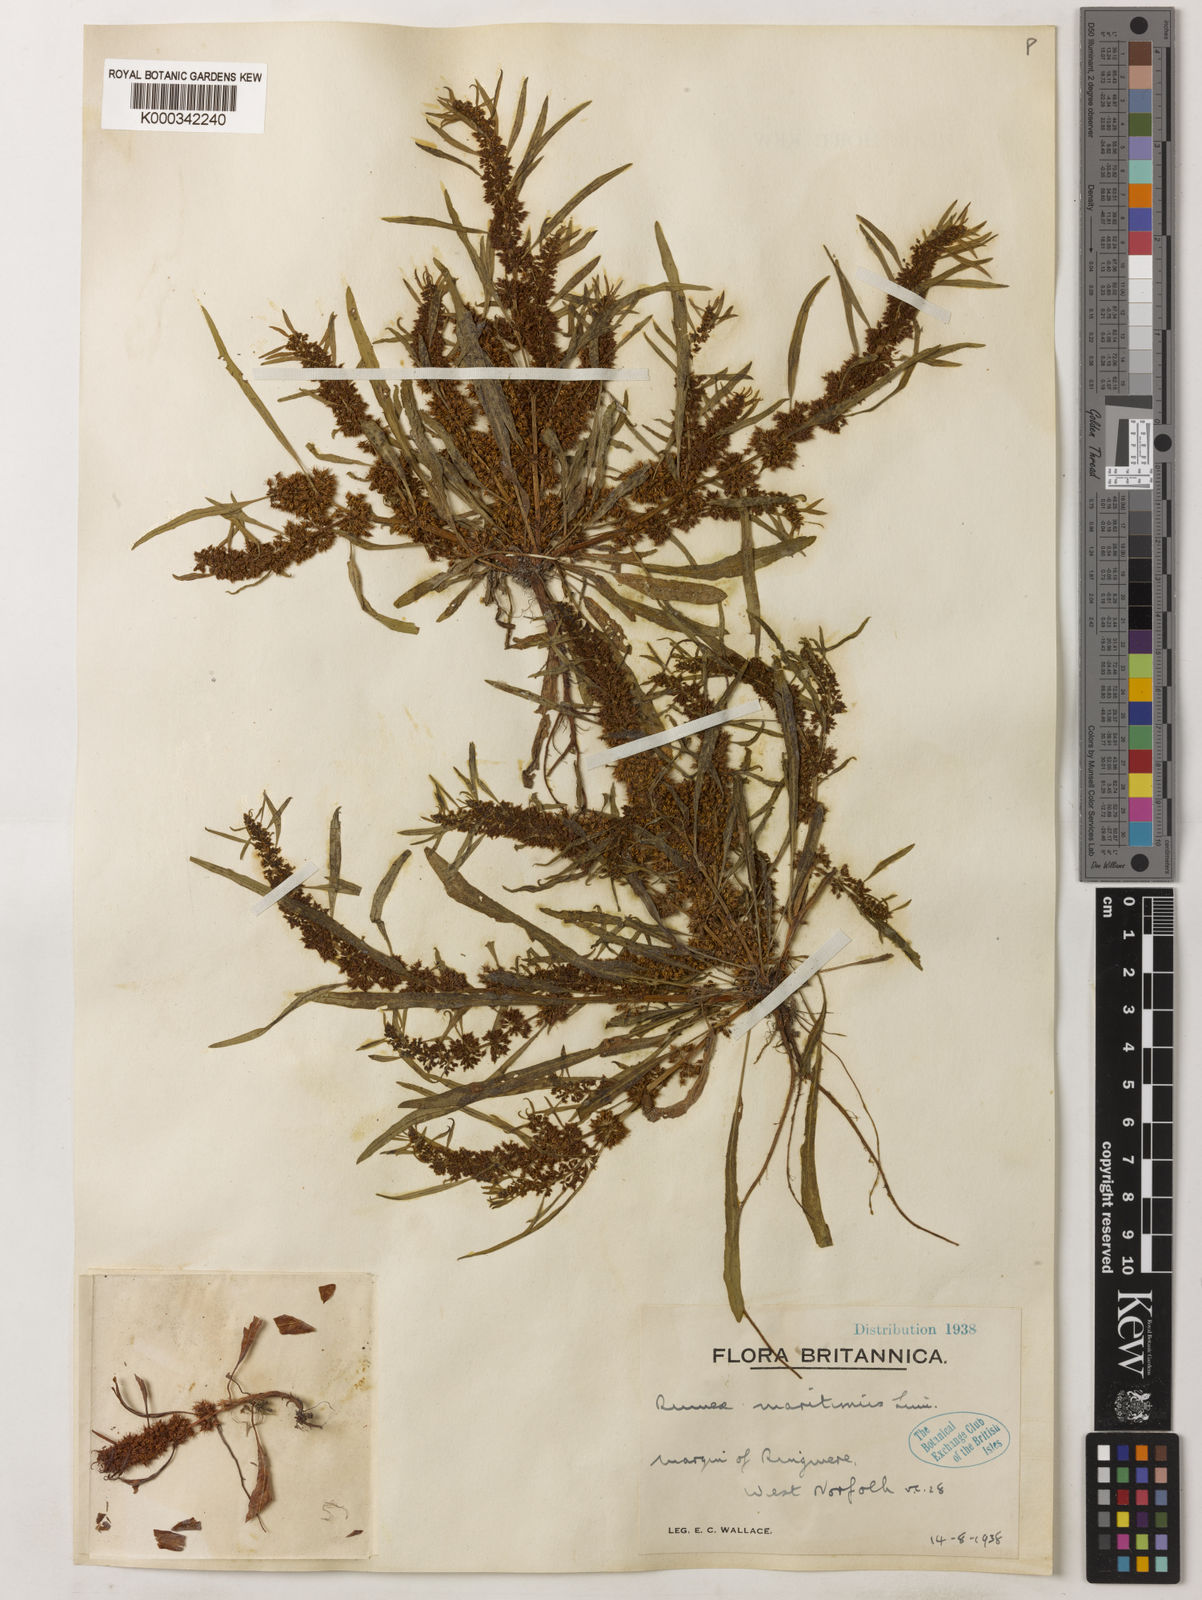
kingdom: Plantae
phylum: Tracheophyta
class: Magnoliopsida
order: Caryophyllales
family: Polygonaceae
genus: Rumex
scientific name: Rumex maritimus
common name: Golden dock
